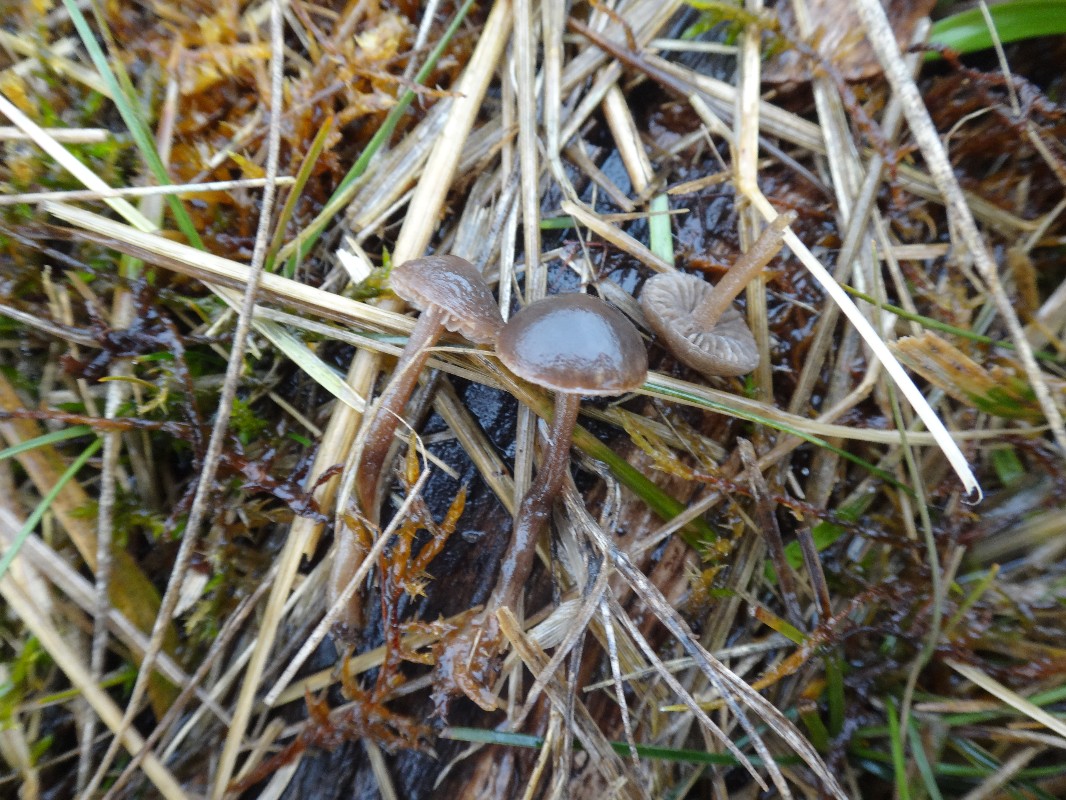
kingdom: Fungi
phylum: Basidiomycota
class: Agaricomycetes
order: Agaricales
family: Bolbitiaceae
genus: Panaeolus
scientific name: Panaeolus olivaceus
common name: lysstokket glanshat
